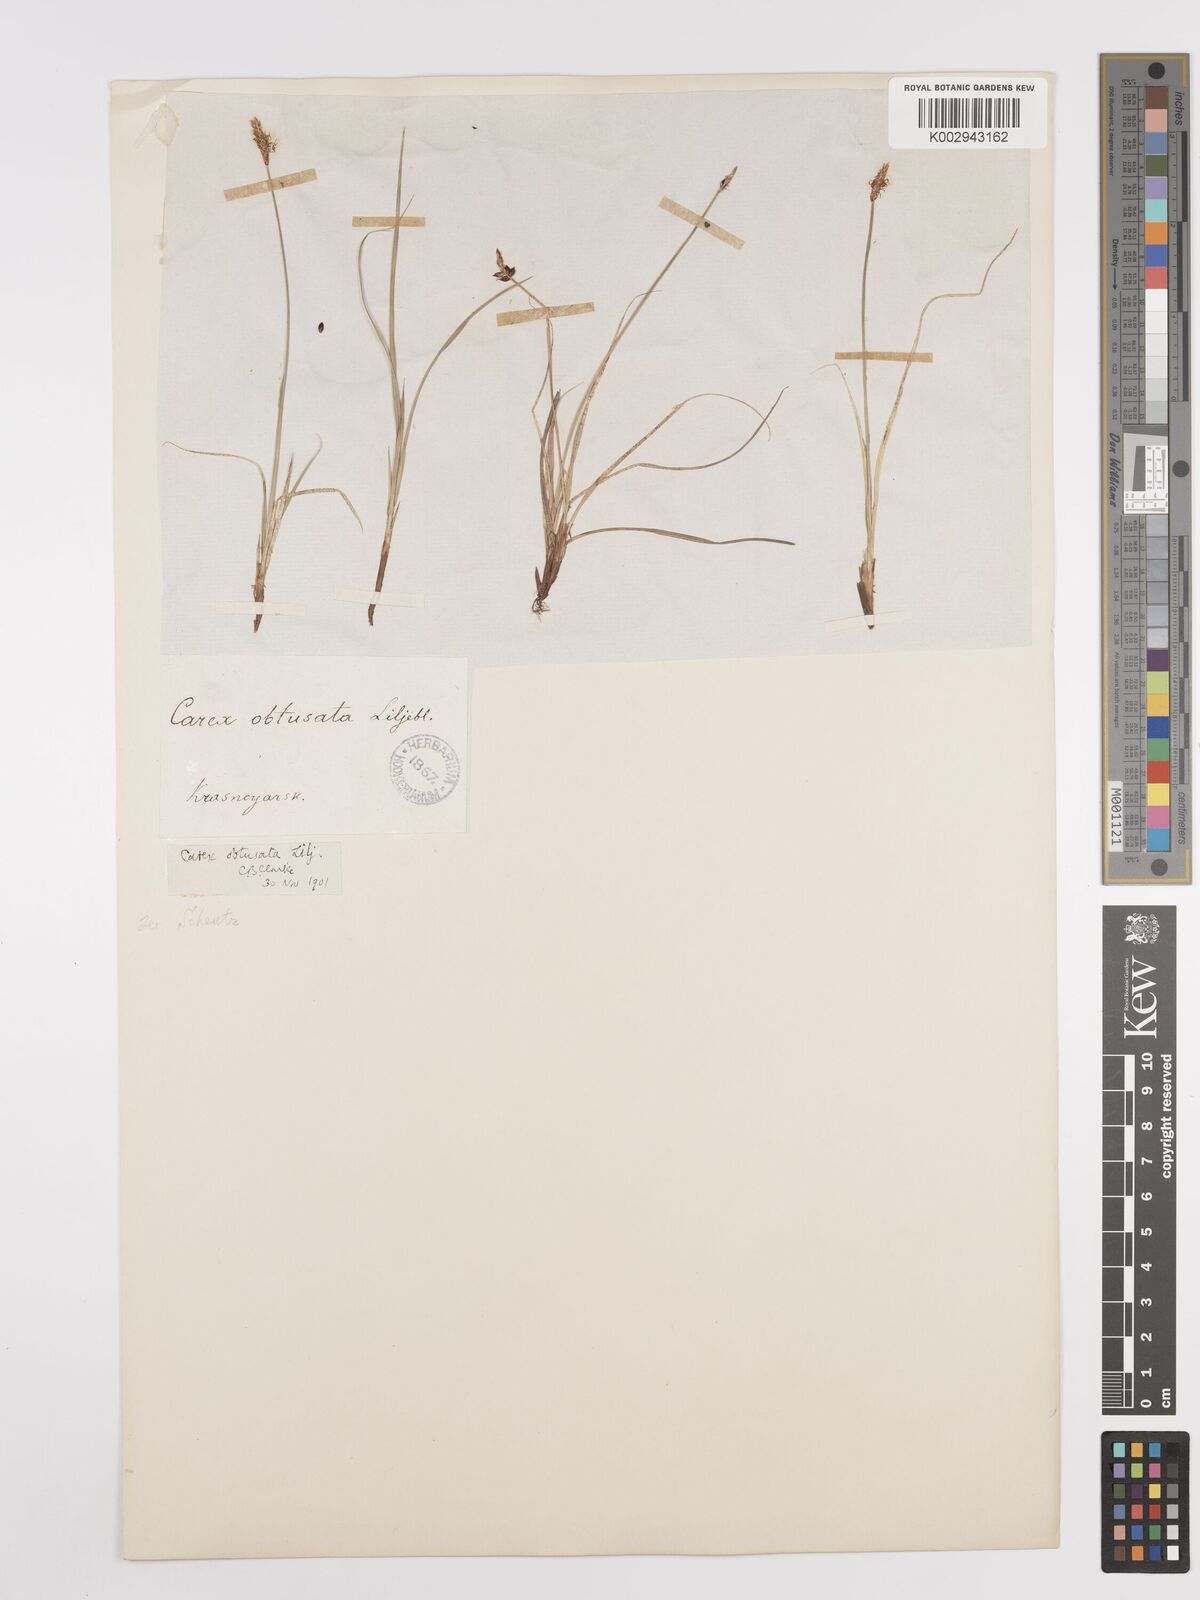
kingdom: Plantae
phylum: Tracheophyta
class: Liliopsida
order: Poales
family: Cyperaceae
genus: Carex
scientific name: Carex
